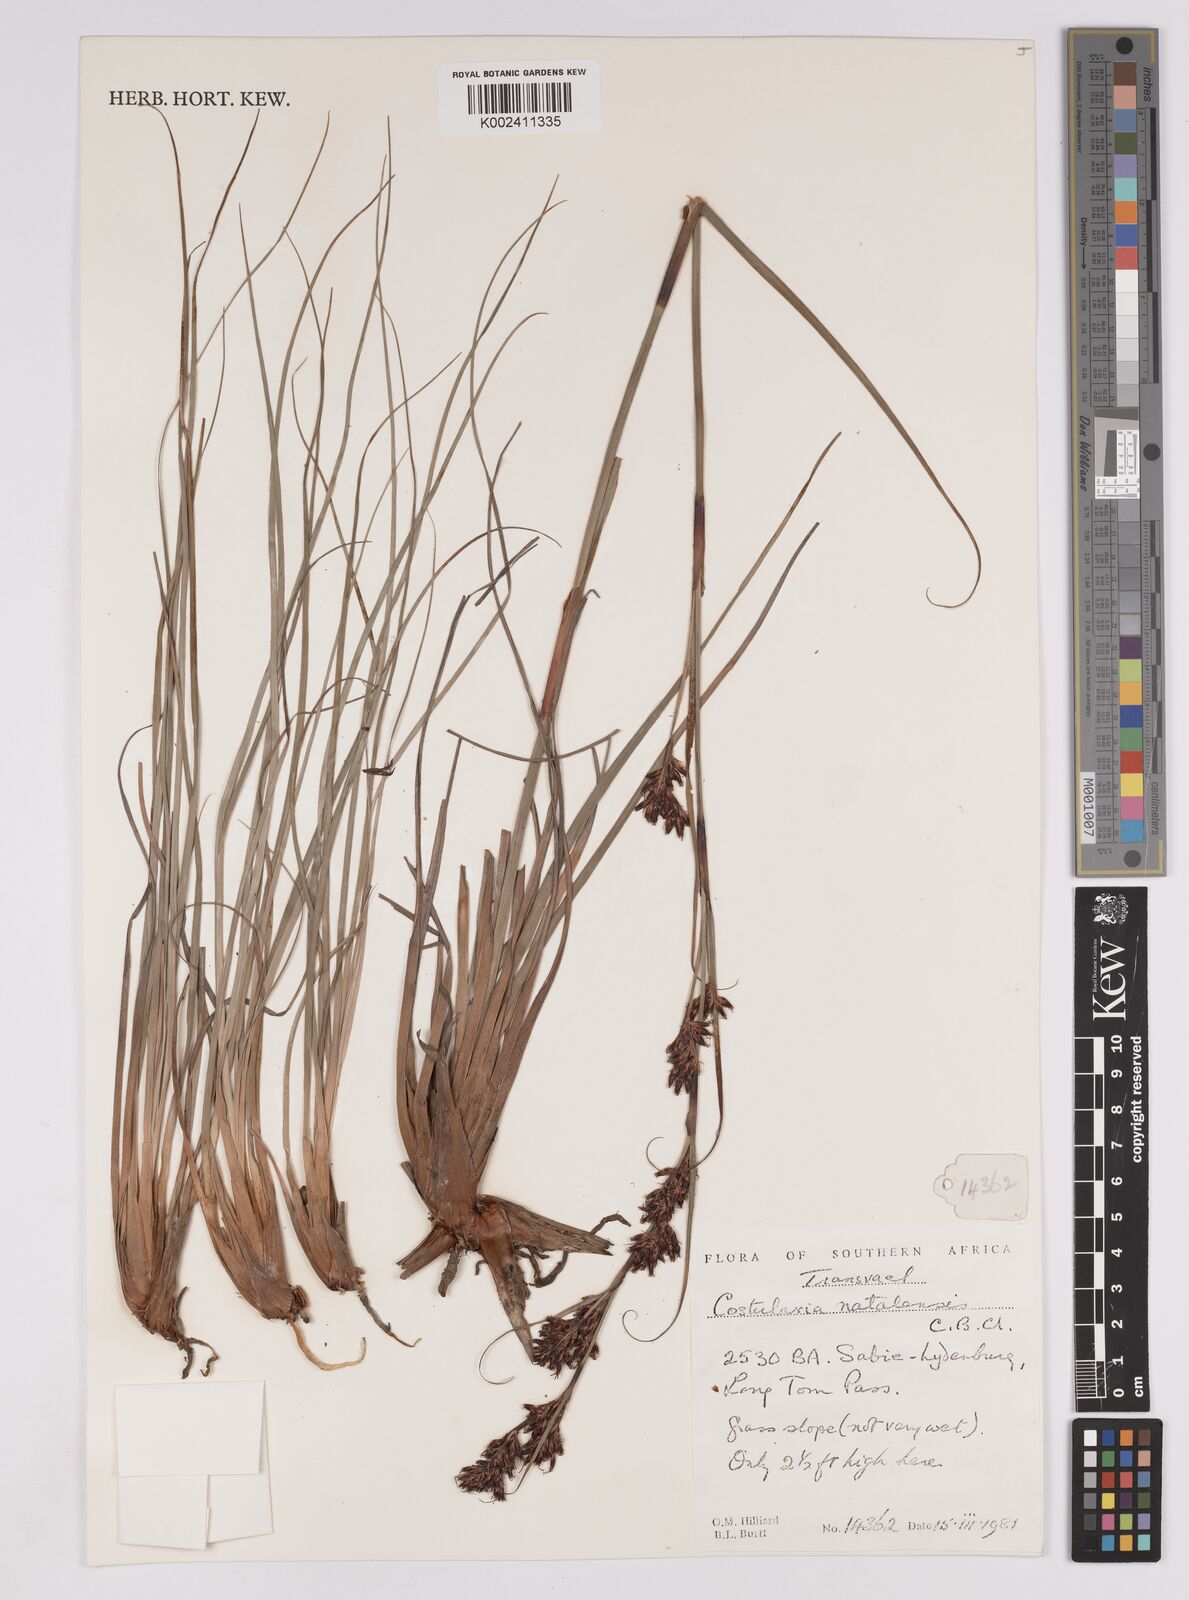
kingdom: Plantae
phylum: Tracheophyta
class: Liliopsida
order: Poales
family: Cyperaceae
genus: Costularia
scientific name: Costularia natalensis
